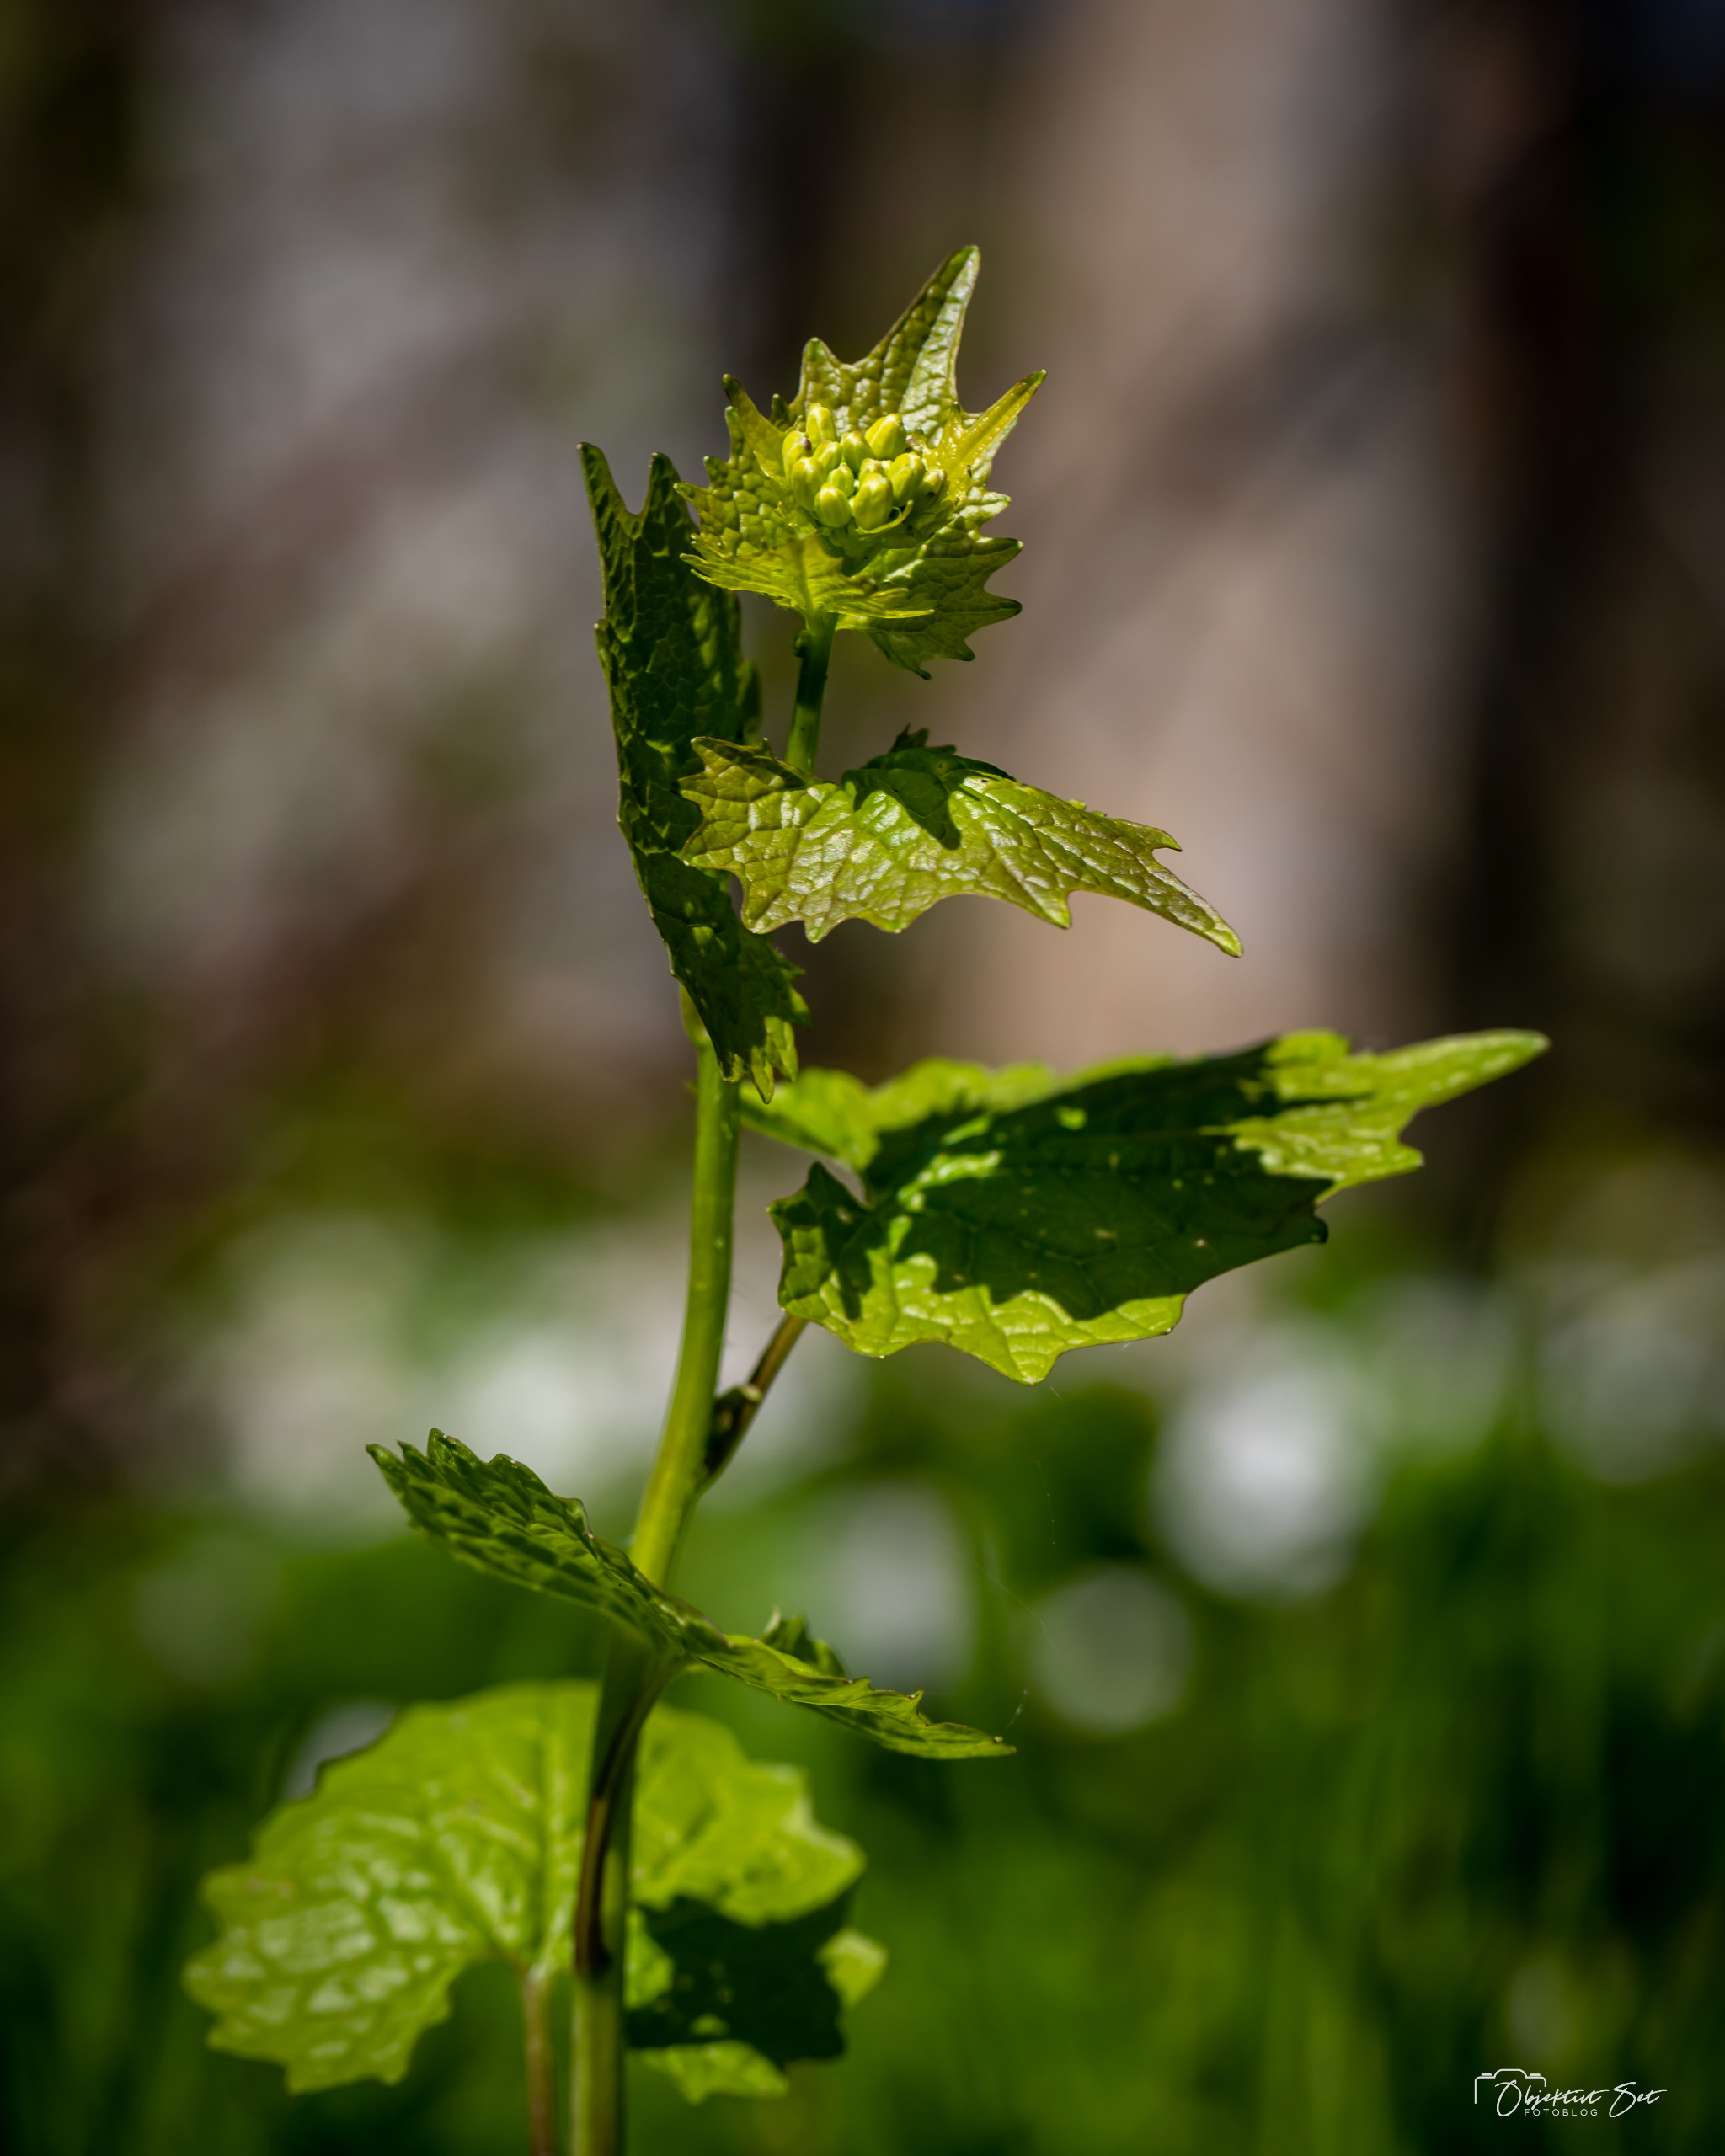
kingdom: Plantae
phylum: Tracheophyta
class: Magnoliopsida
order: Brassicales
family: Brassicaceae
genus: Alliaria
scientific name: Alliaria petiolata
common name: Løgkarse
